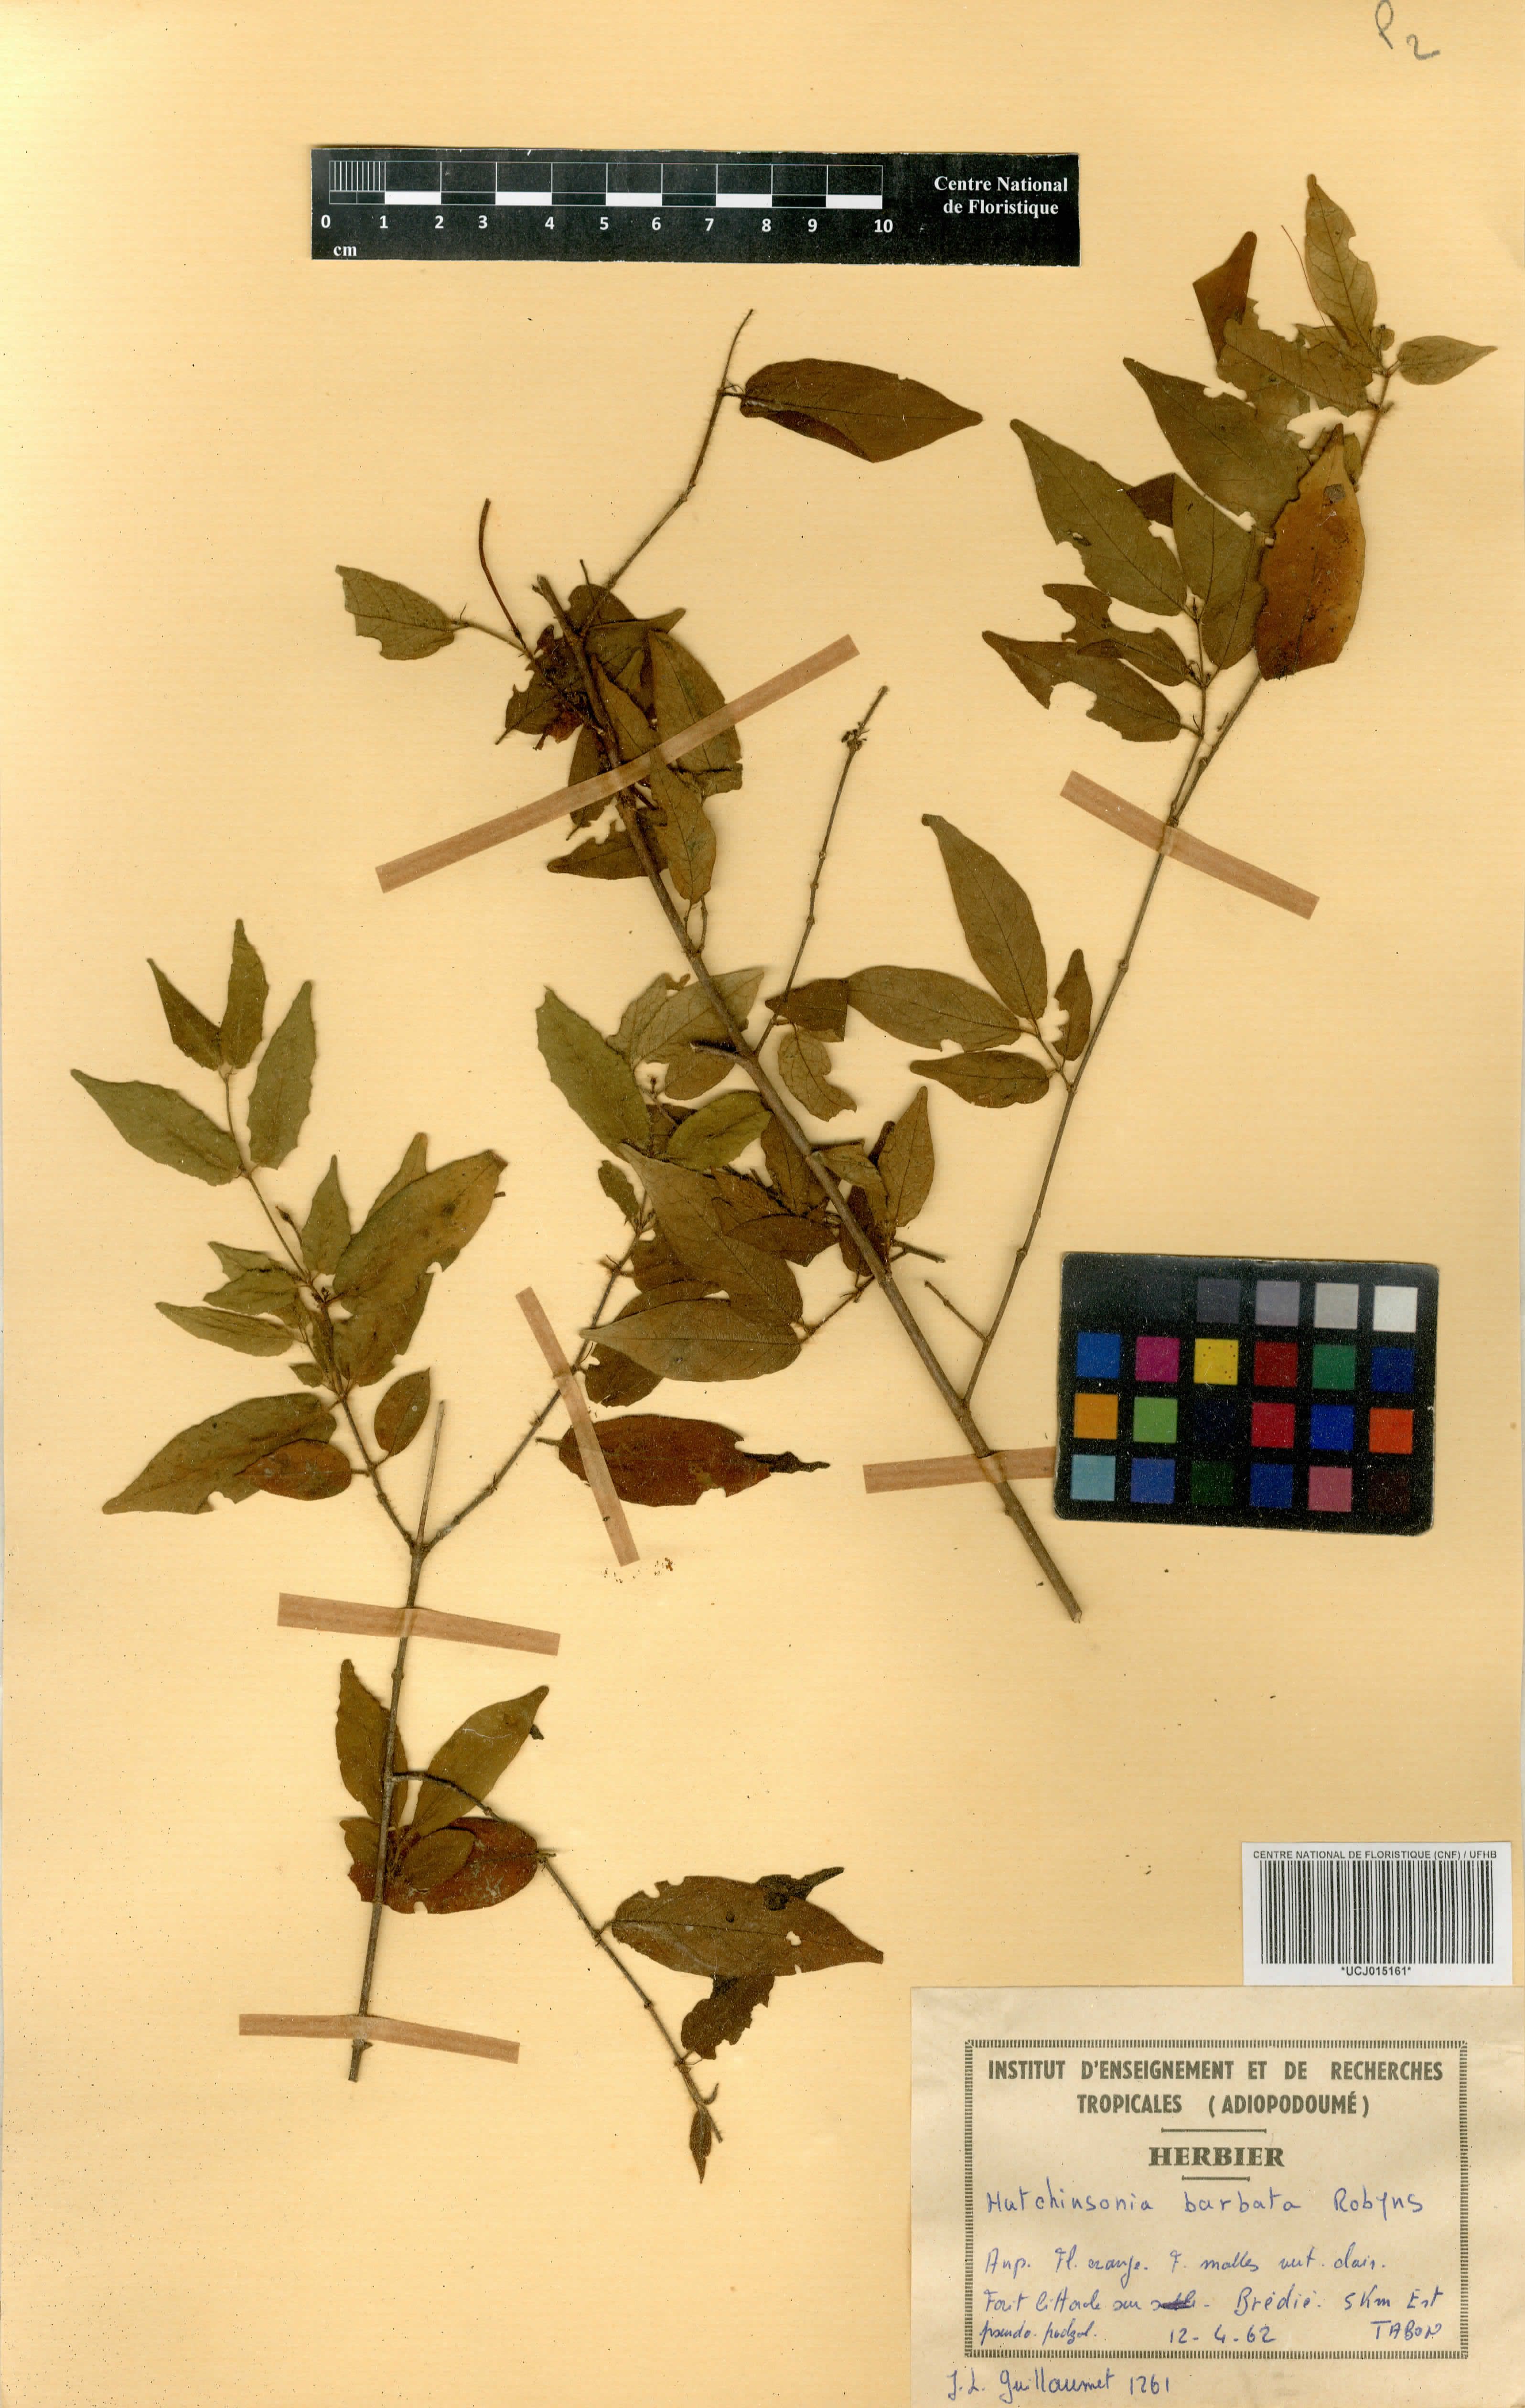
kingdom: Plantae
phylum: Tracheophyta
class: Magnoliopsida
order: Gentianales
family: Rubiaceae
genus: Hutchinsonia
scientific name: Hutchinsonia barbata
